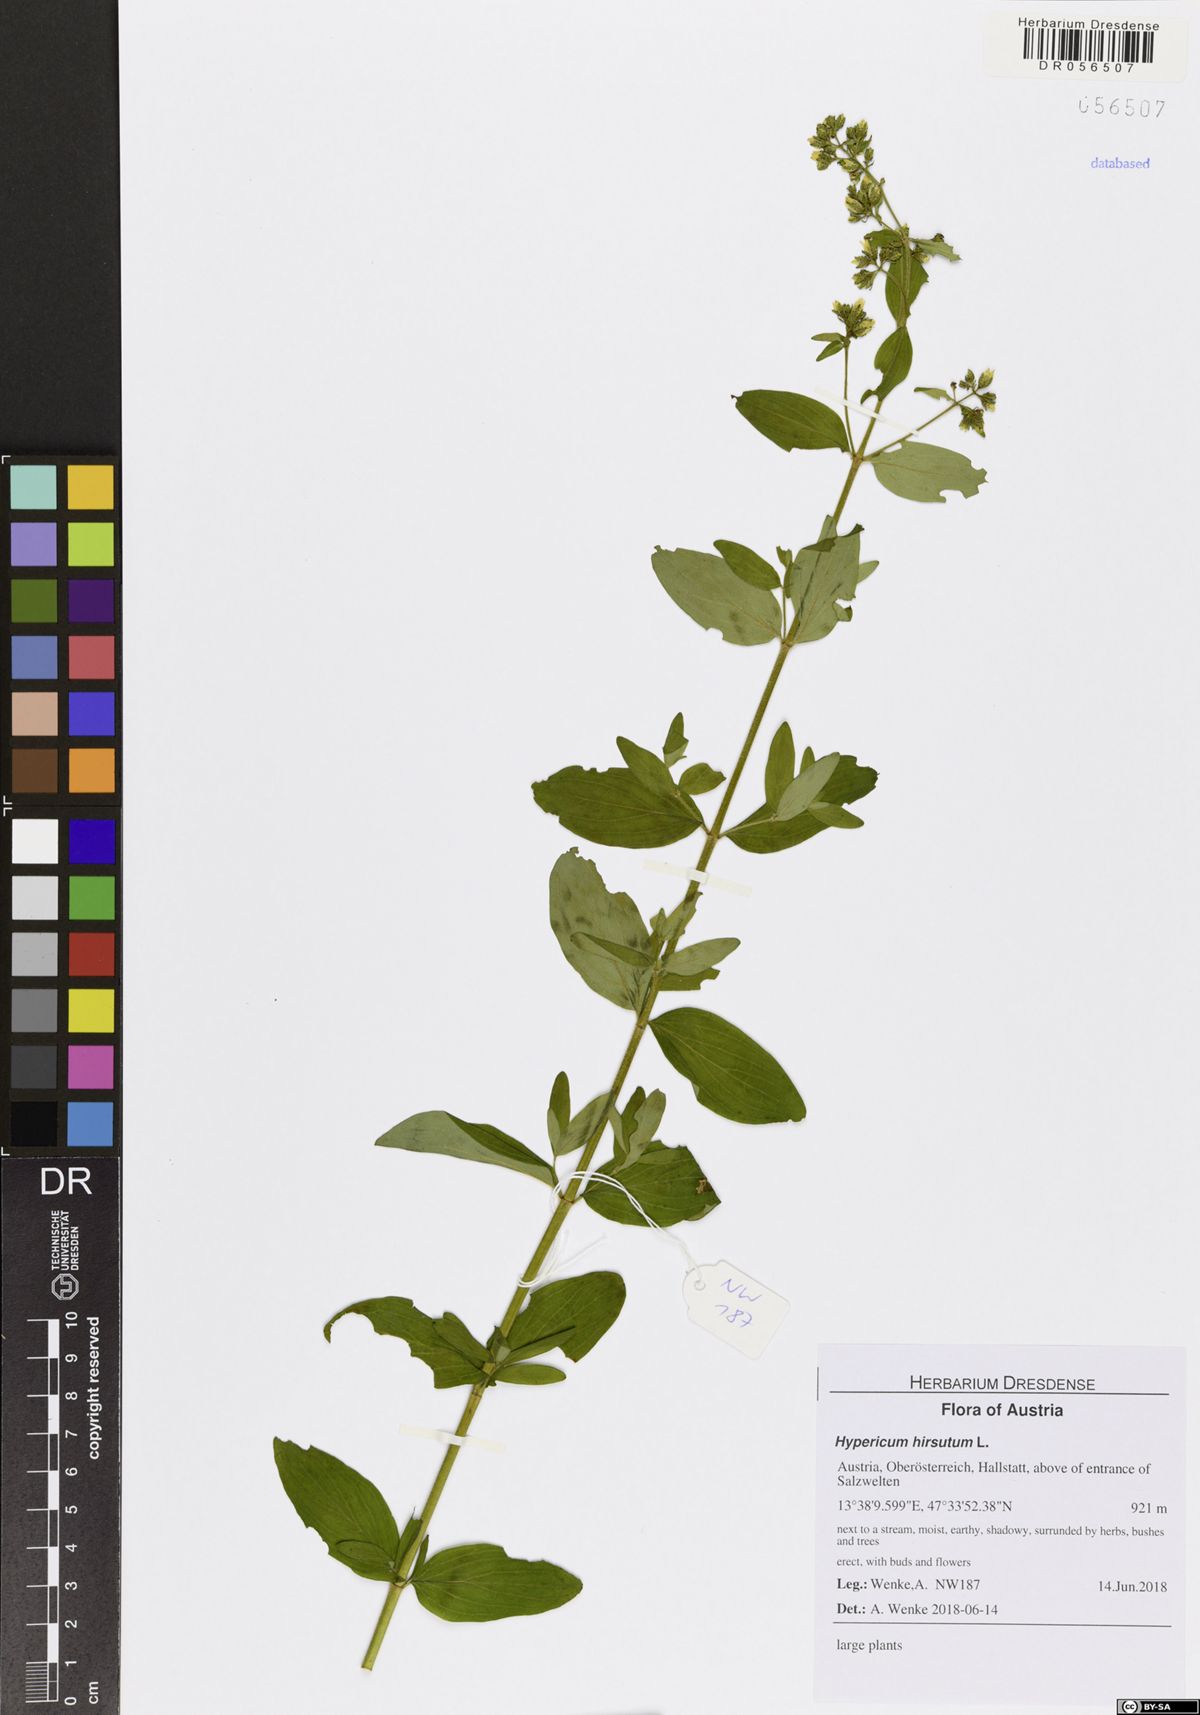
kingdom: Plantae
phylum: Tracheophyta
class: Magnoliopsida
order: Malpighiales
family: Hypericaceae
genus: Hypericum
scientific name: Hypericum hirsutum
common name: Hairy st. john's-wort
